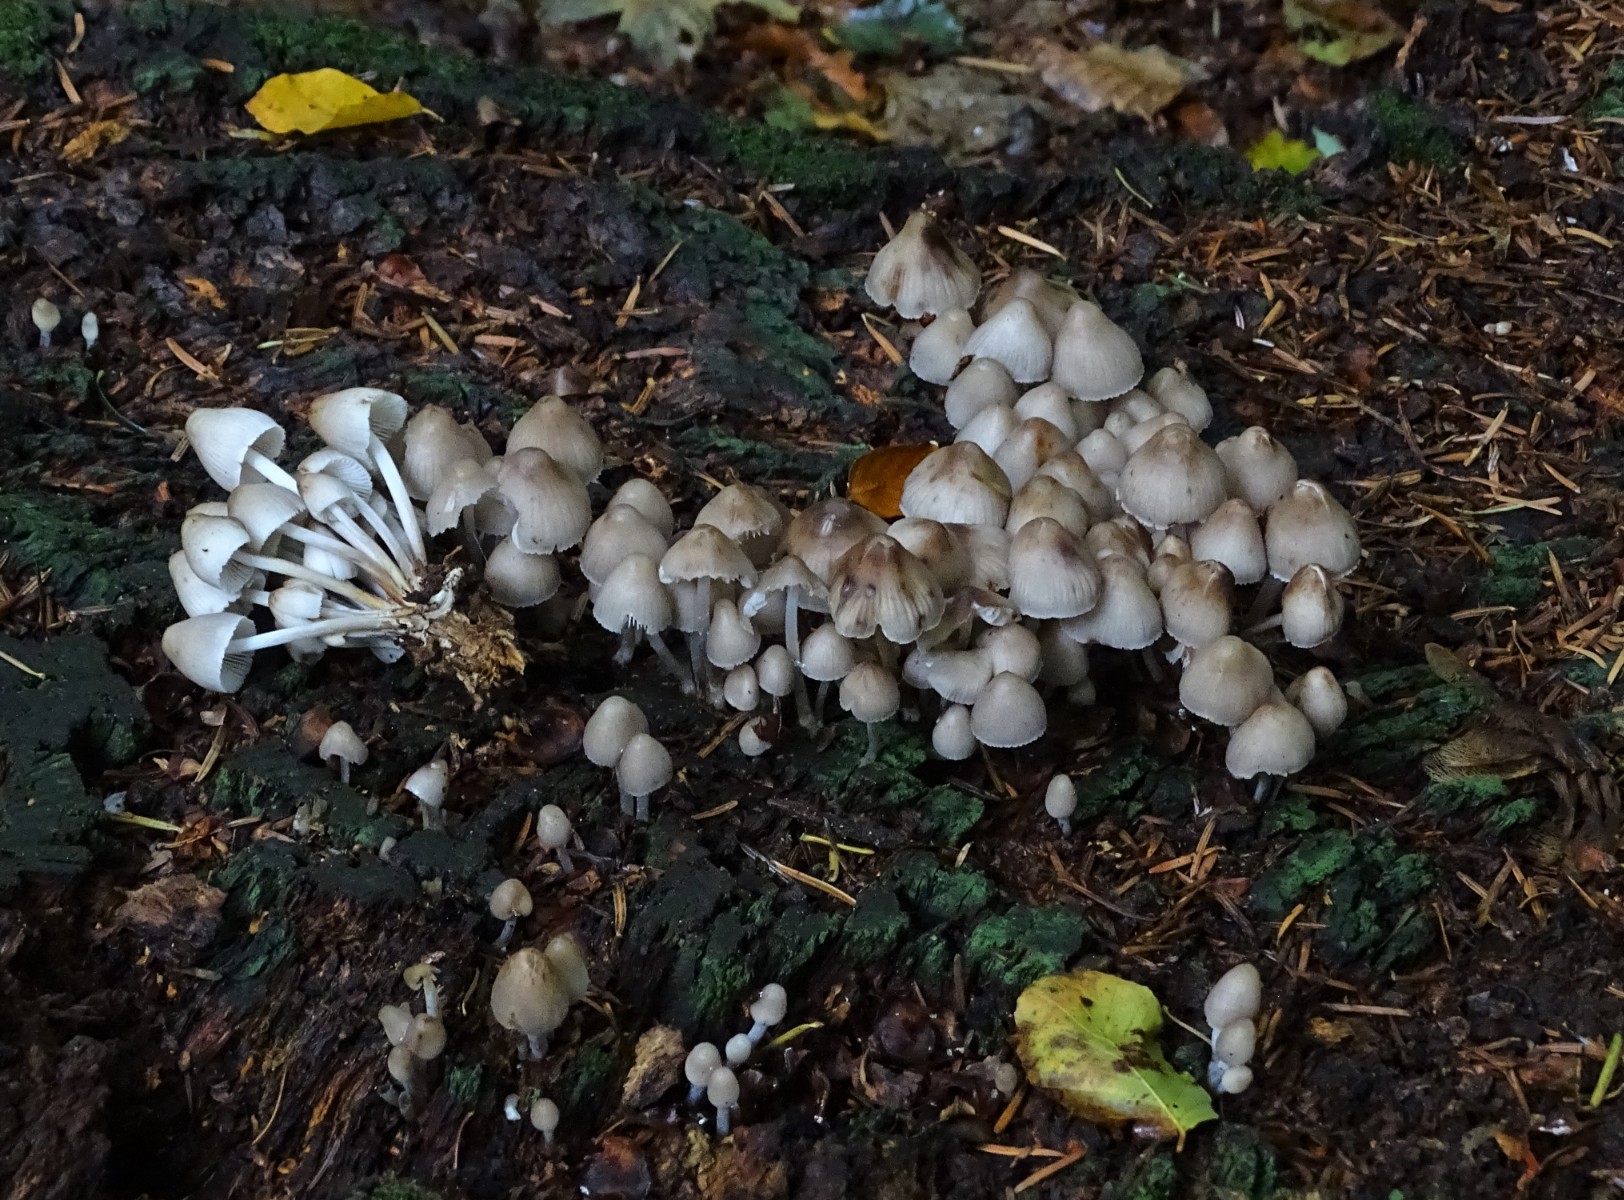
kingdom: Fungi
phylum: Basidiomycota
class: Agaricomycetes
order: Agaricales
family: Mycenaceae
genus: Mycena
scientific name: Mycena inclinata
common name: nikkende huesvamp
